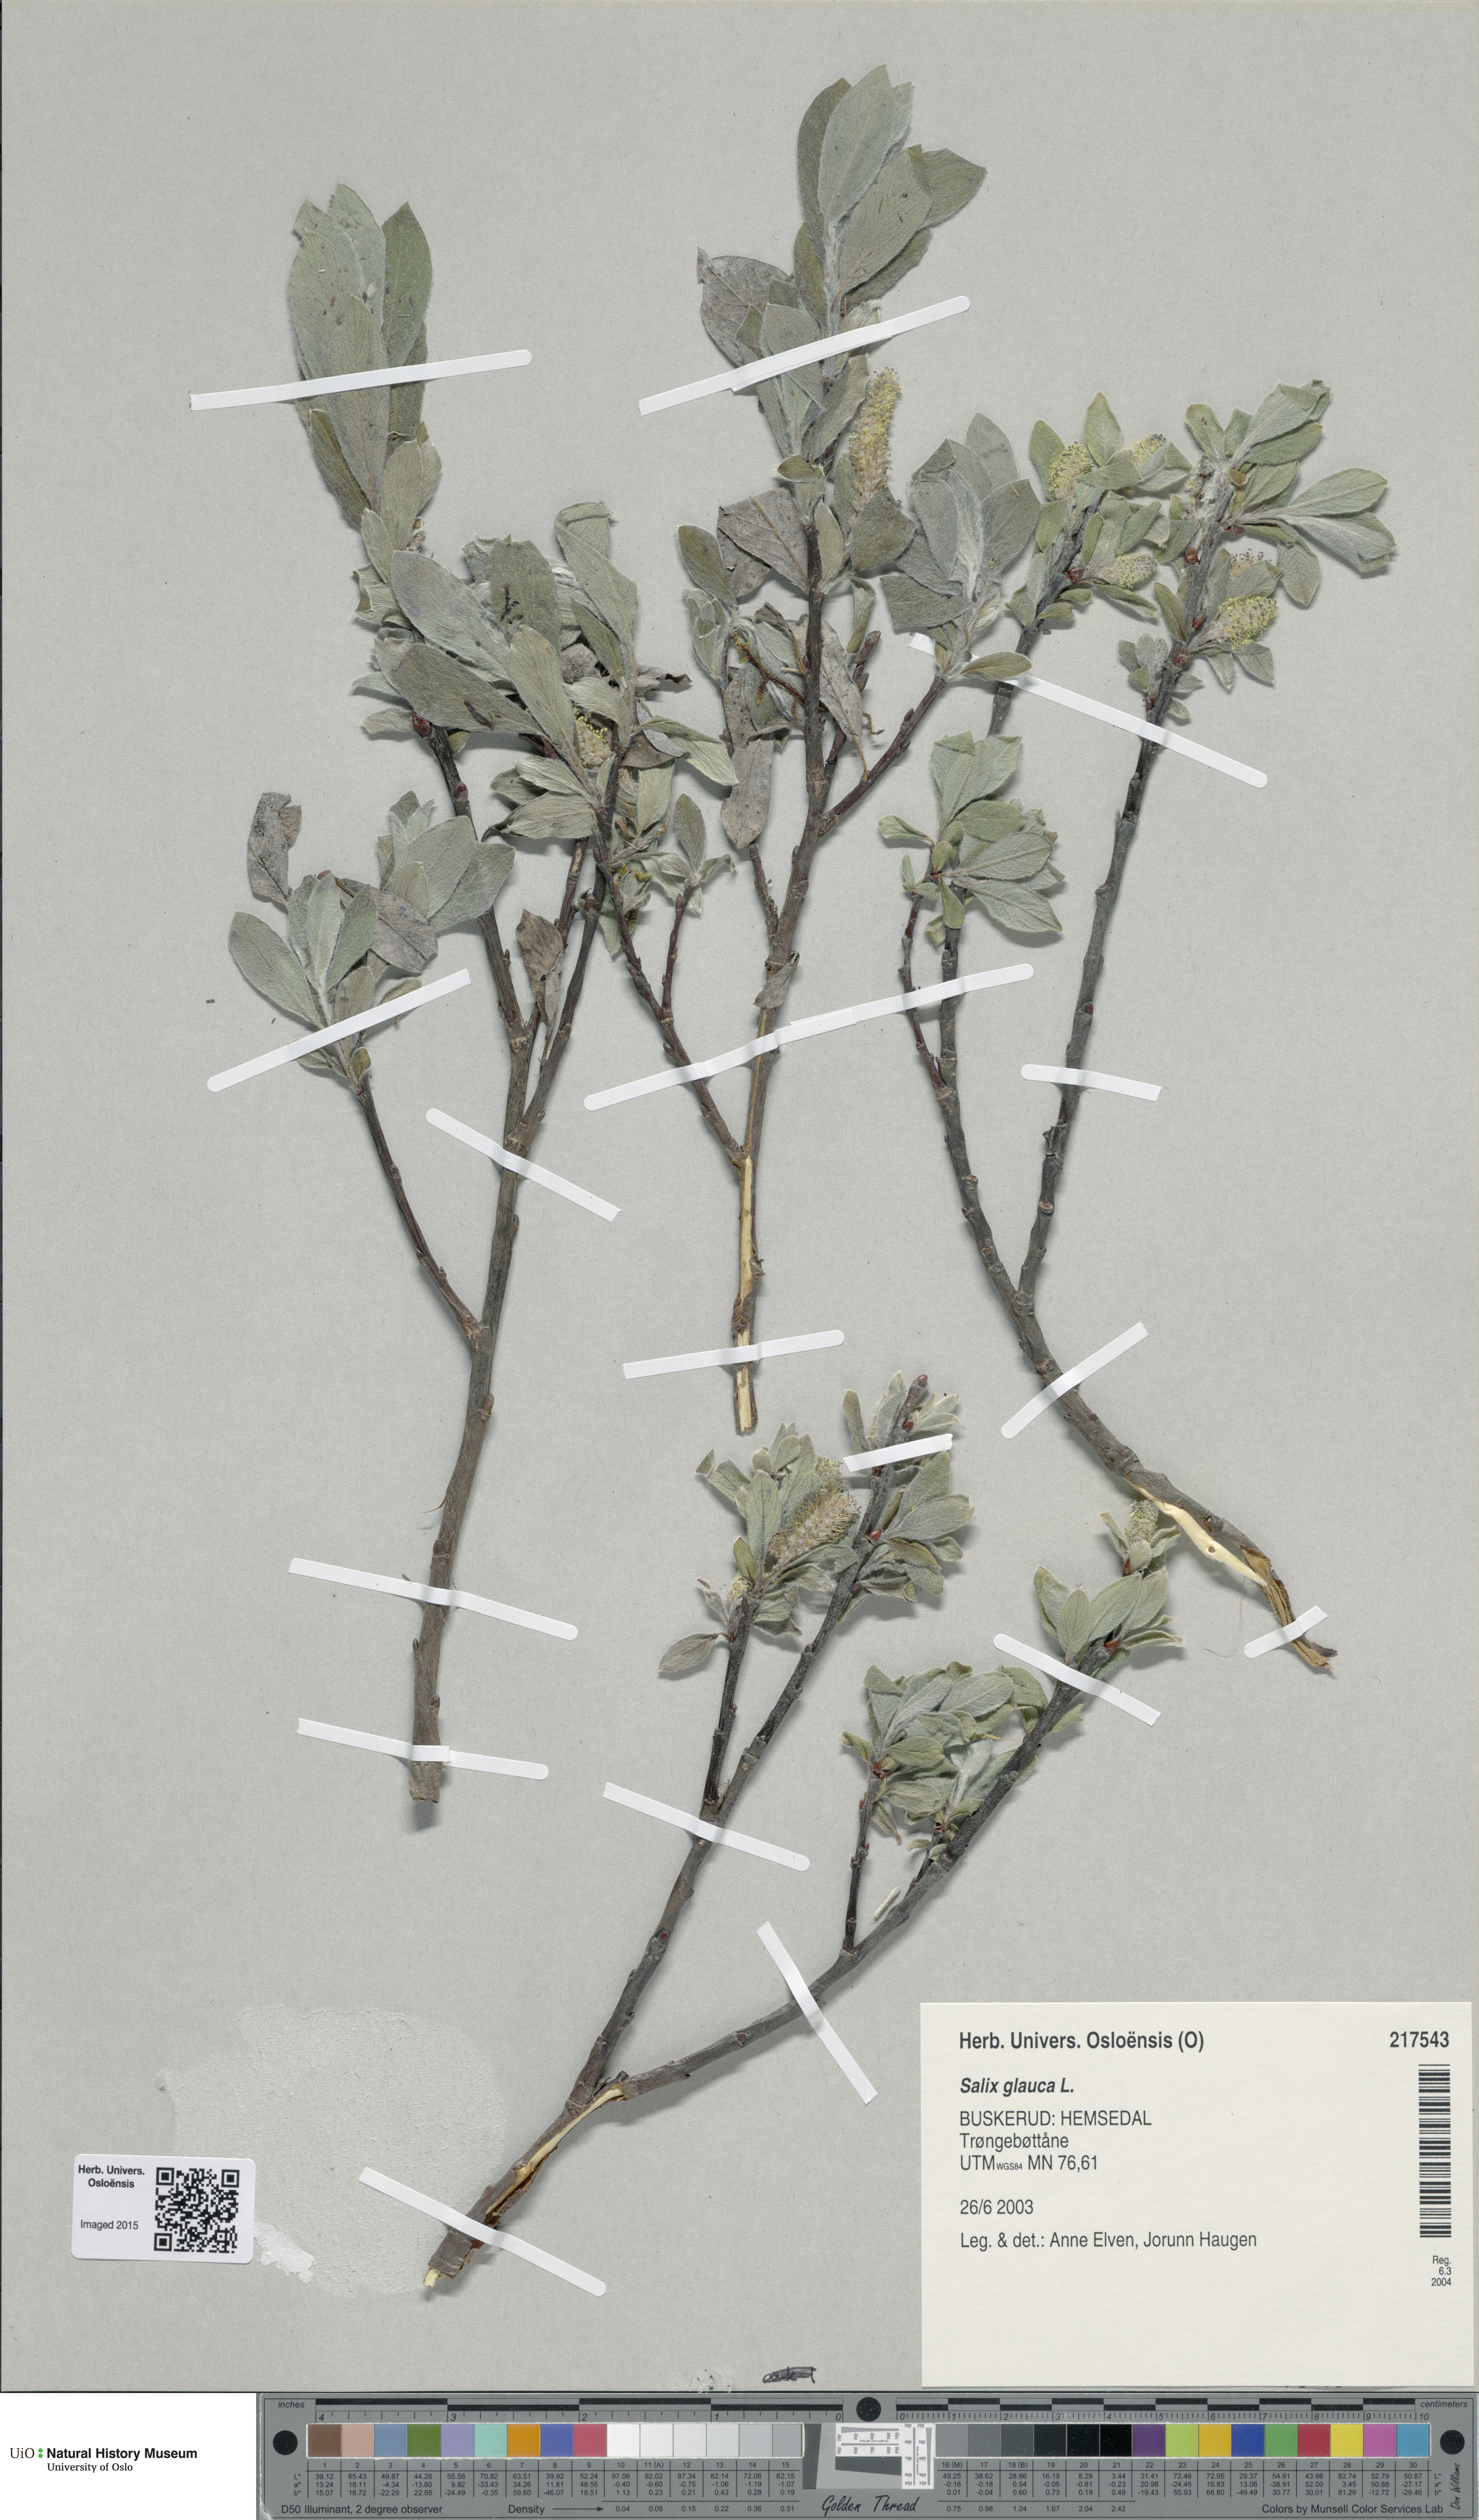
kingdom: Plantae
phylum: Tracheophyta
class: Magnoliopsida
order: Malpighiales
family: Salicaceae
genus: Salix
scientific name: Salix glauca
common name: Glaucous willow
